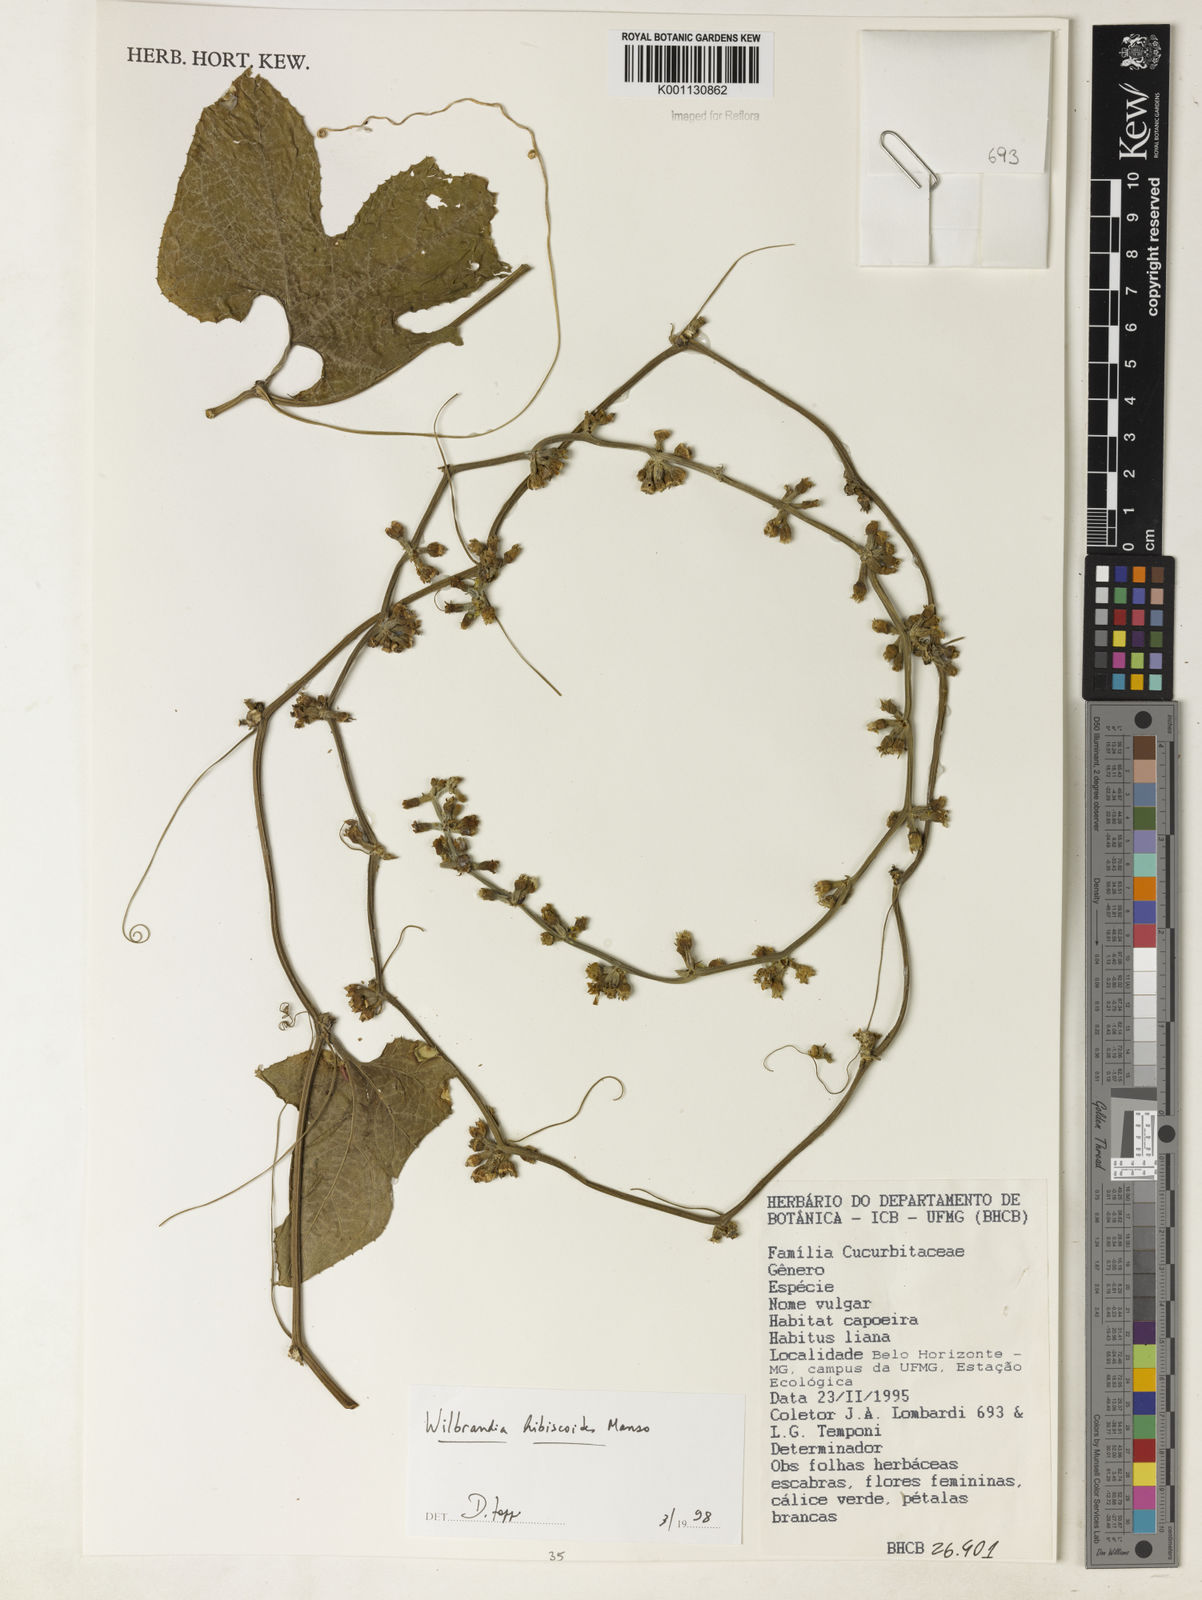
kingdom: Plantae
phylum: Tracheophyta
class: Magnoliopsida
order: Cucurbitales
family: Cucurbitaceae
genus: Wilbrandia
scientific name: Wilbrandia hibiscoides
